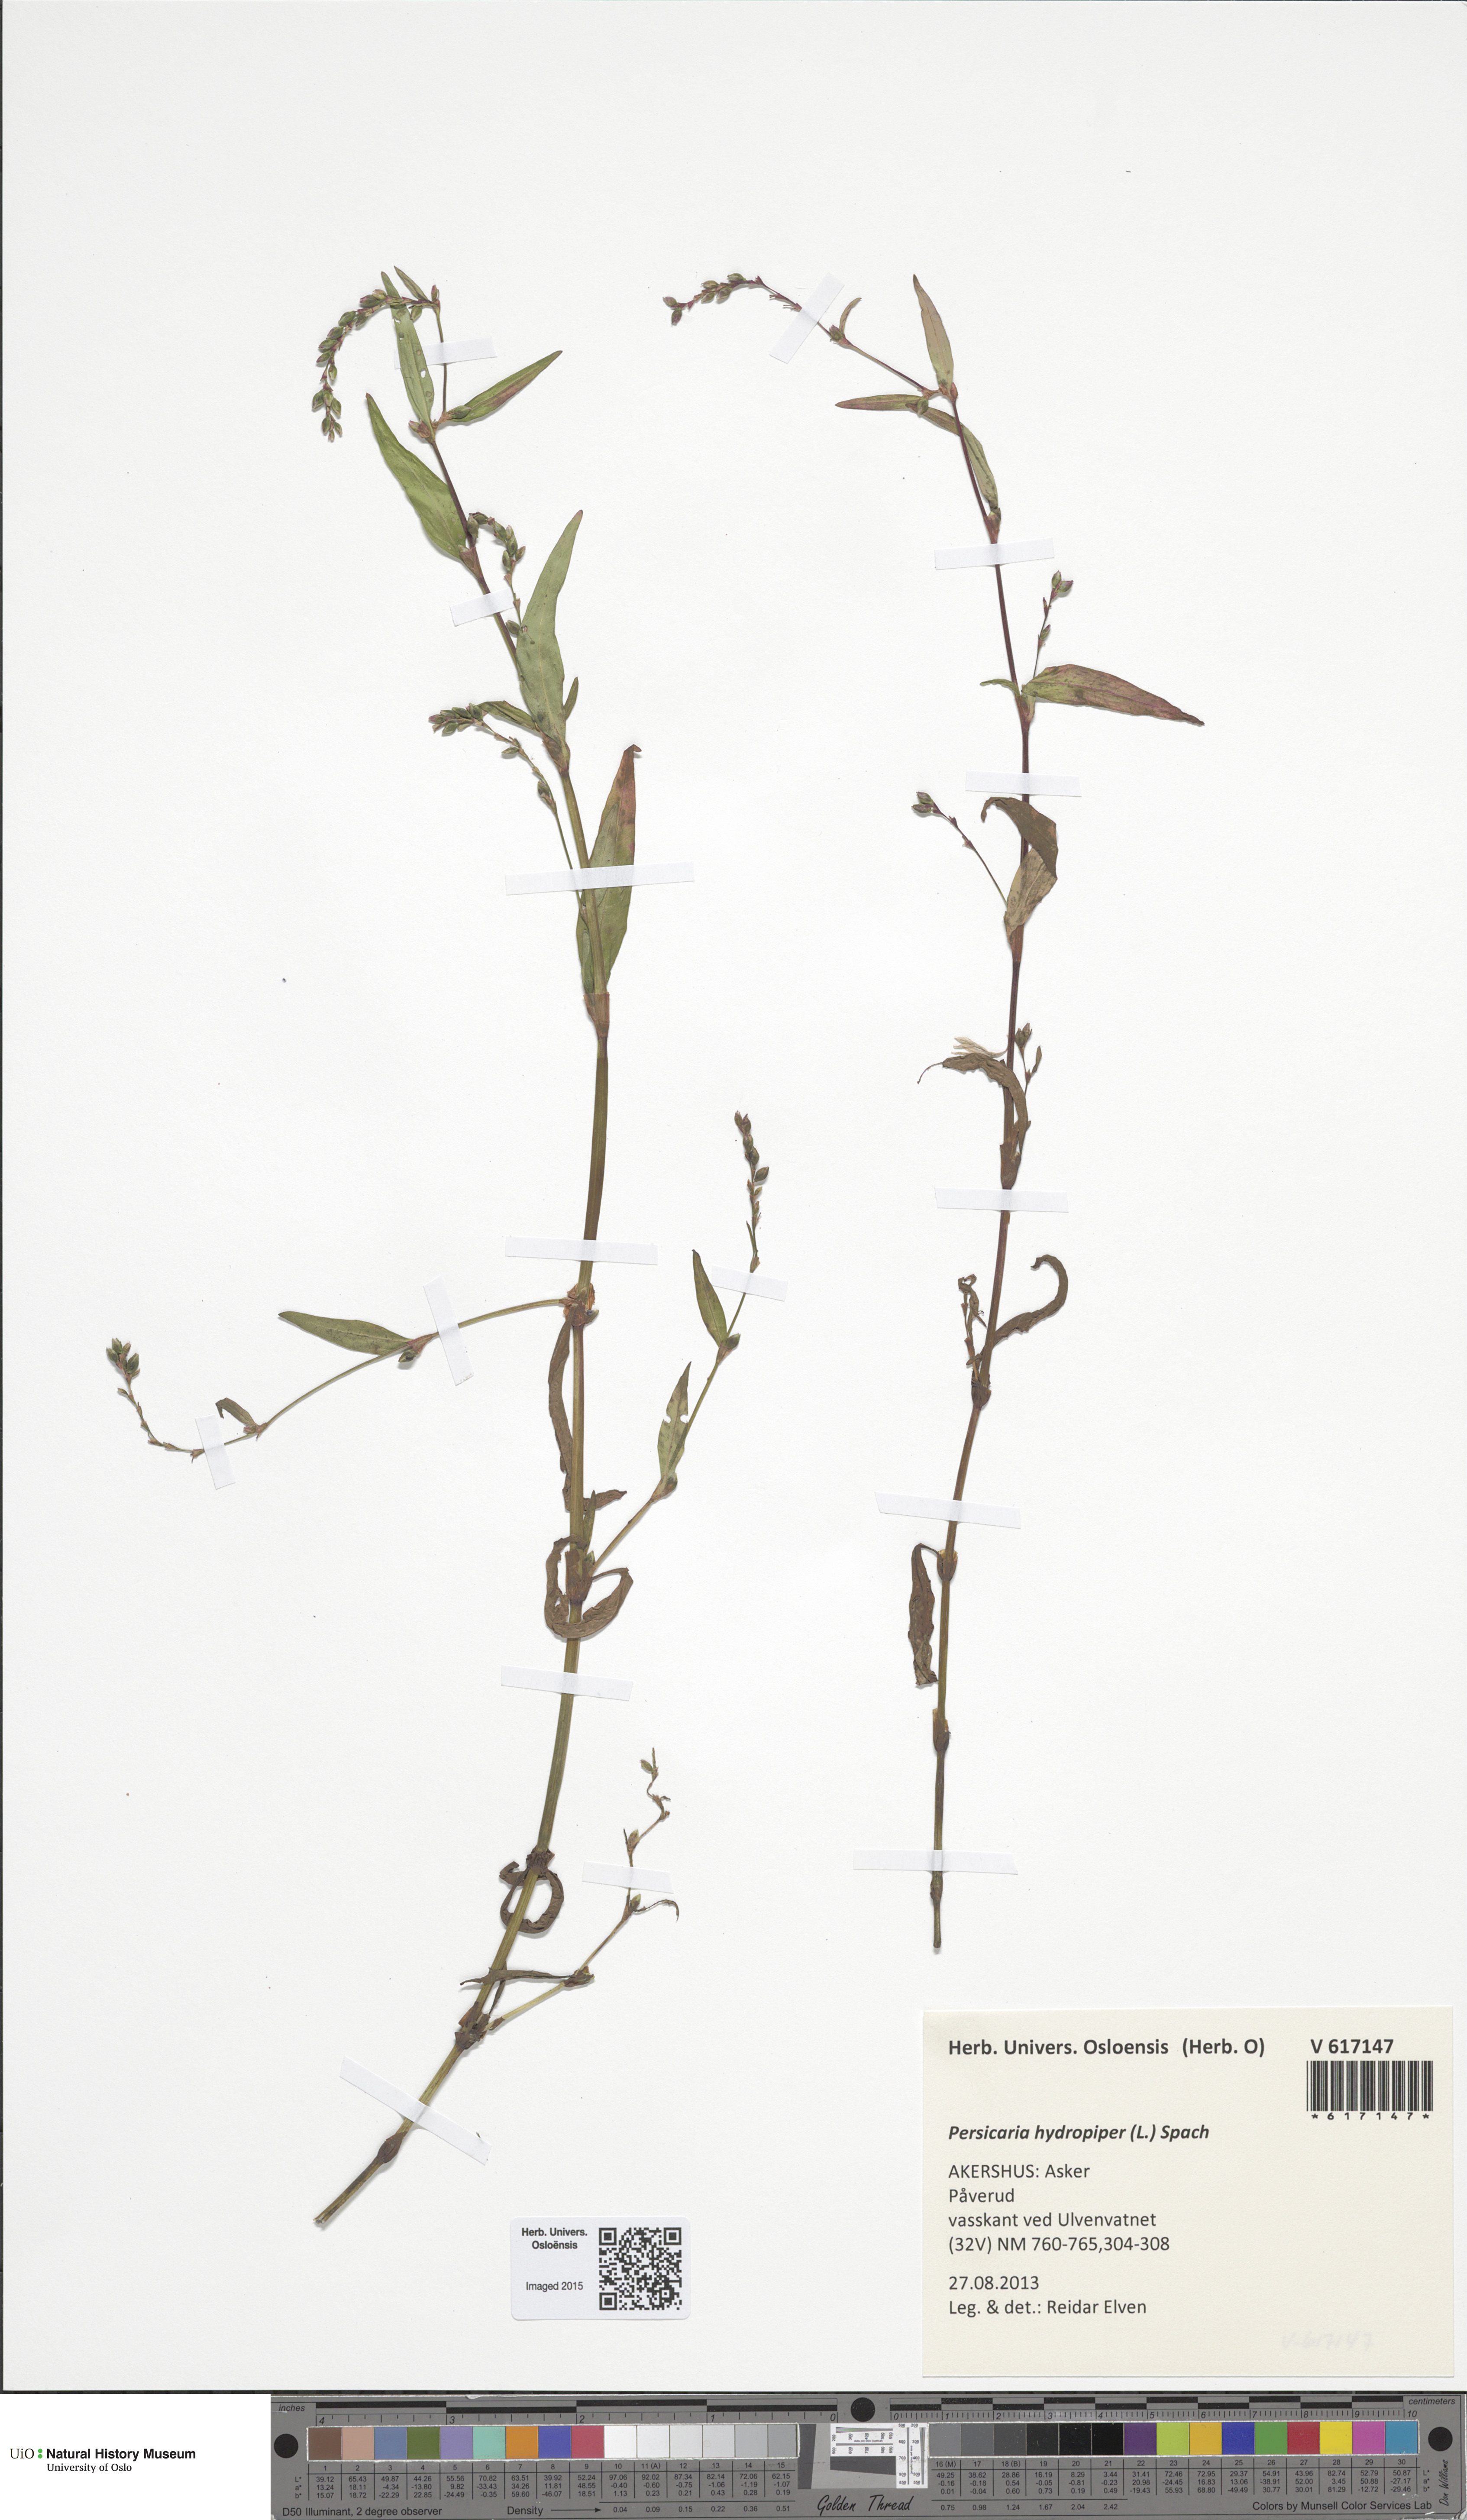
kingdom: Plantae
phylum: Tracheophyta
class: Magnoliopsida
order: Caryophyllales
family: Polygonaceae
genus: Persicaria
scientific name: Persicaria hydropiper
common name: Water-pepper
